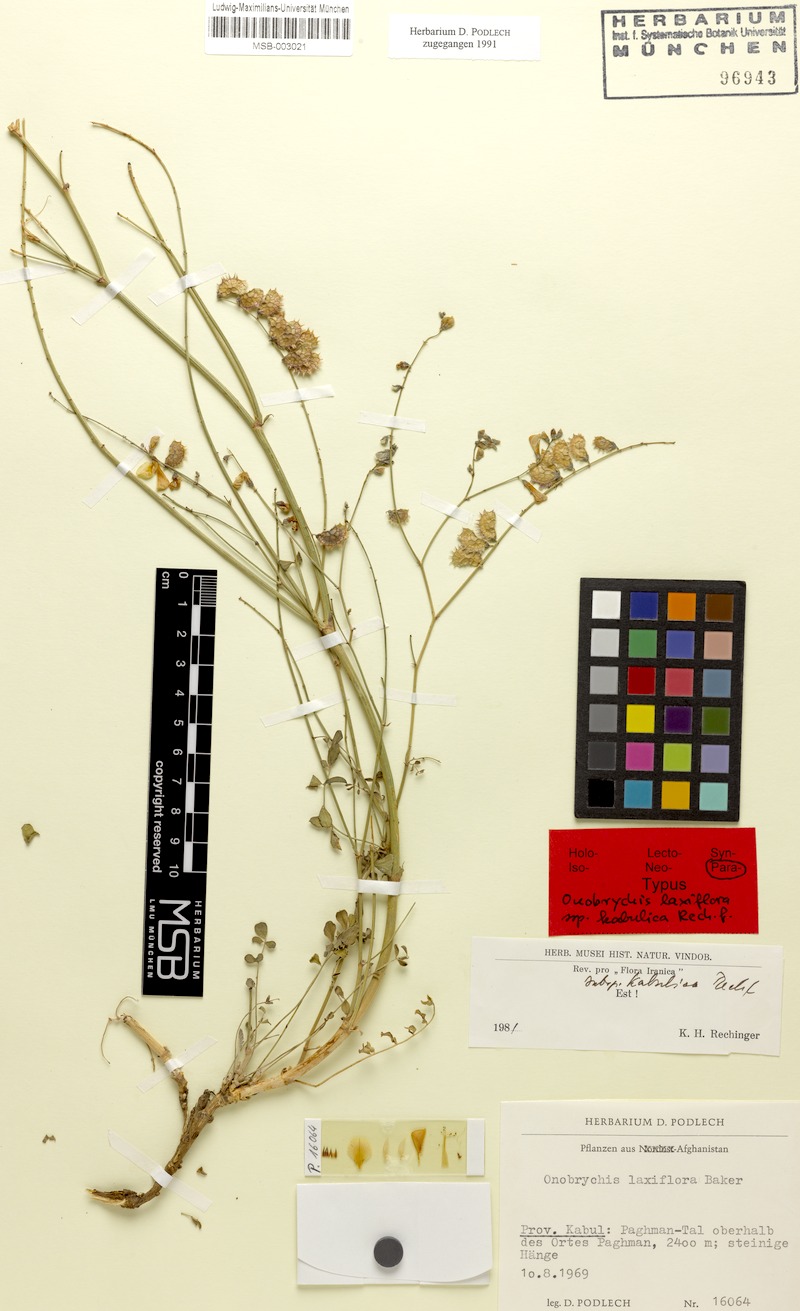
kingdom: Plantae
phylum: Tracheophyta
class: Magnoliopsida
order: Fabales
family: Fabaceae
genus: Onobrychis
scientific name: Onobrychis laxiflora
